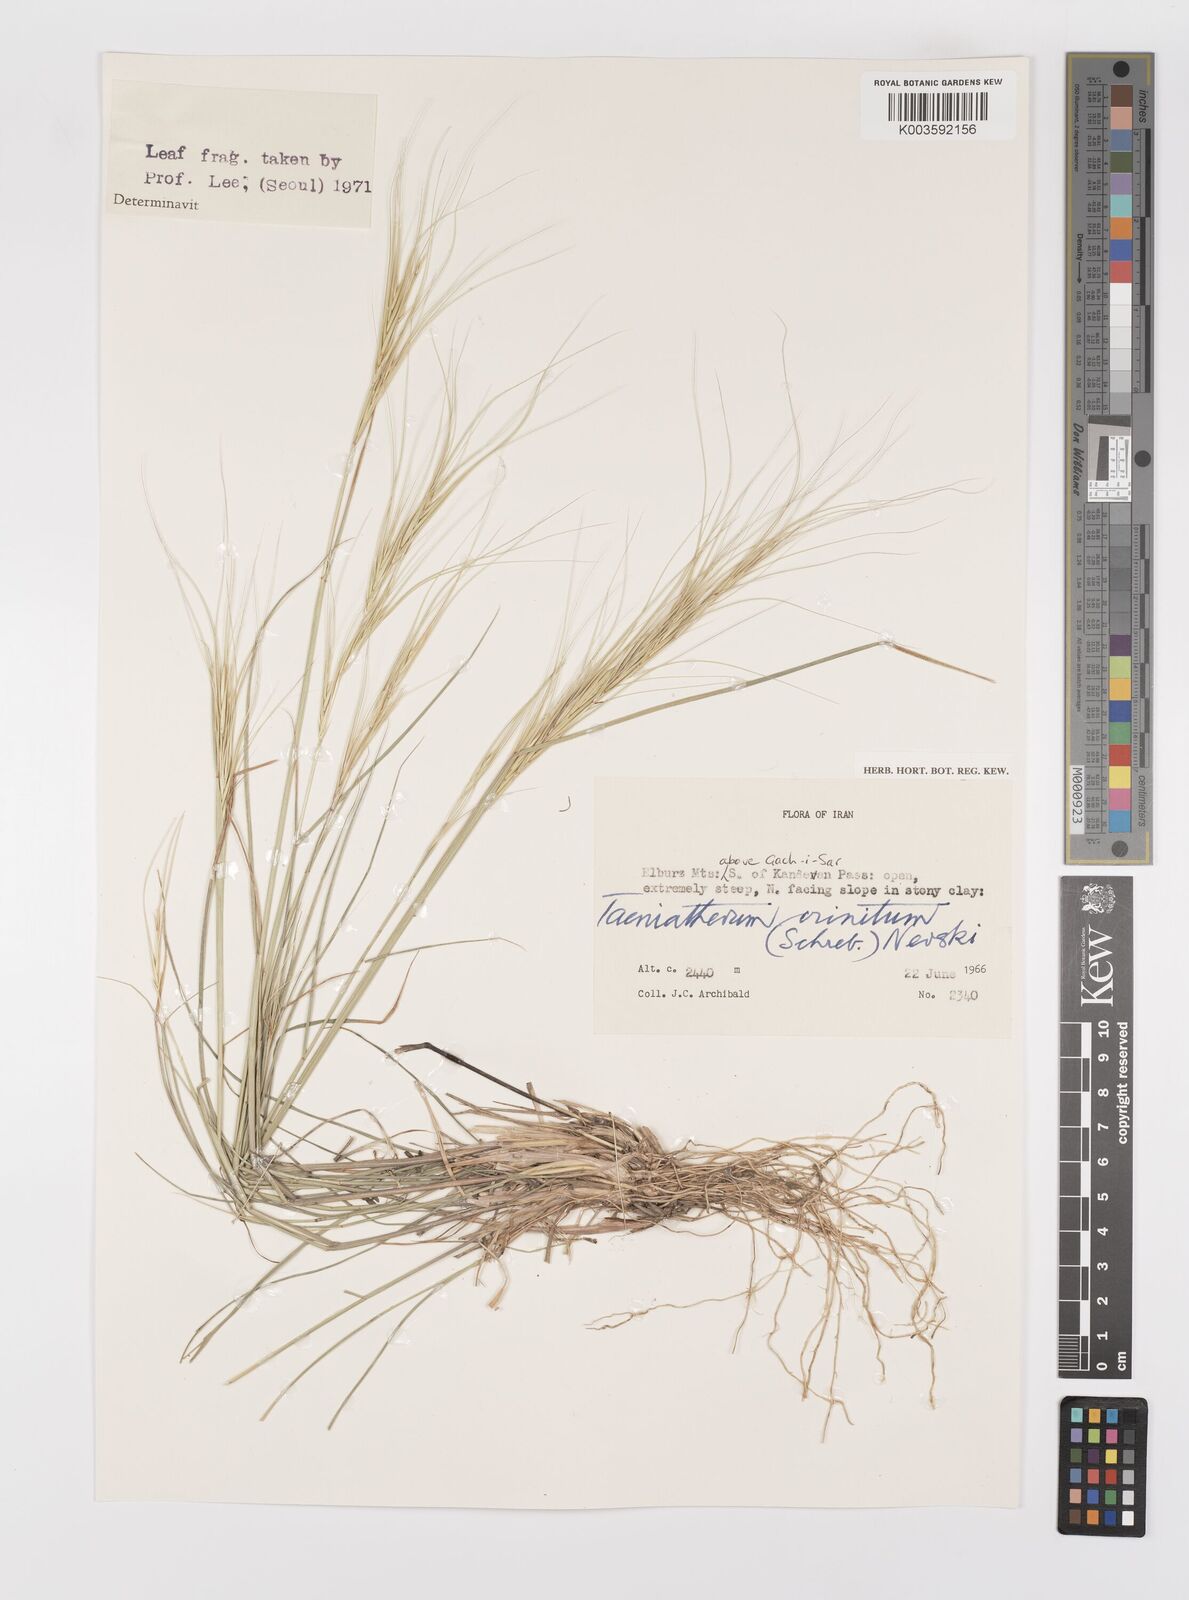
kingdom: Plantae
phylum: Tracheophyta
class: Liliopsida
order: Poales
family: Poaceae
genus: Taeniatherum
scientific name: Taeniatherum caput-medusae
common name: Medusahead
